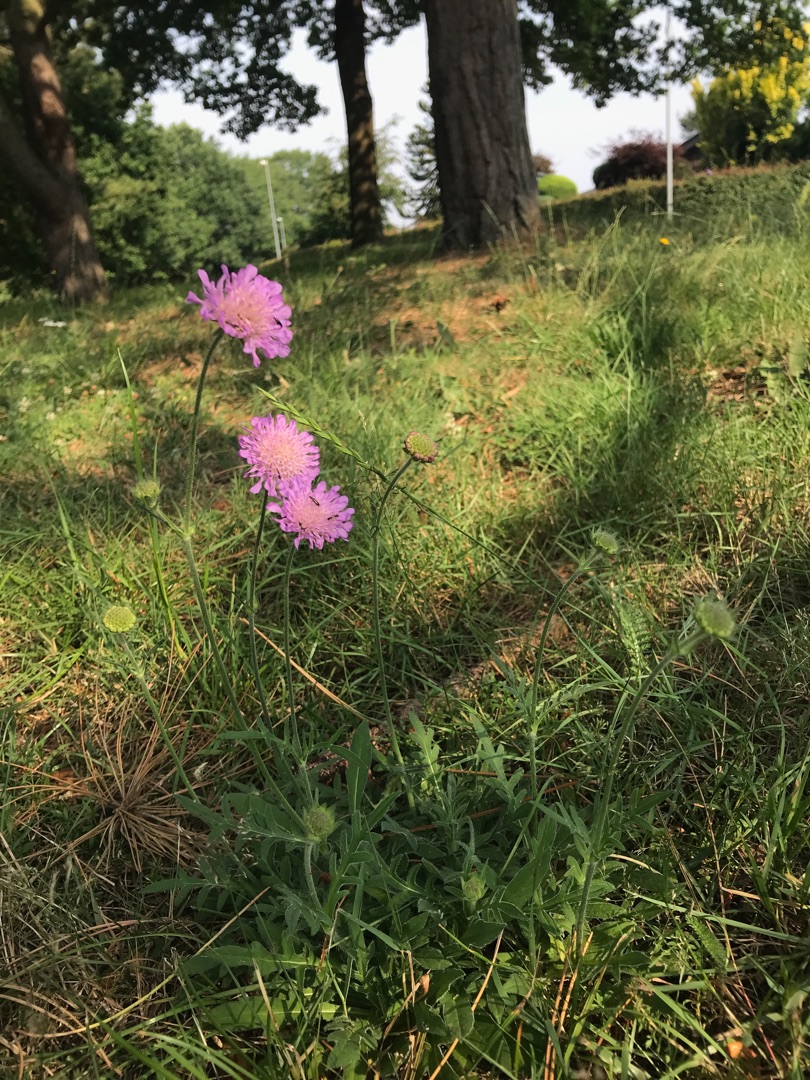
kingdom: Plantae
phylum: Tracheophyta
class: Magnoliopsida
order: Dipsacales
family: Caprifoliaceae
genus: Knautia
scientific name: Knautia arvensis
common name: Blåhat
